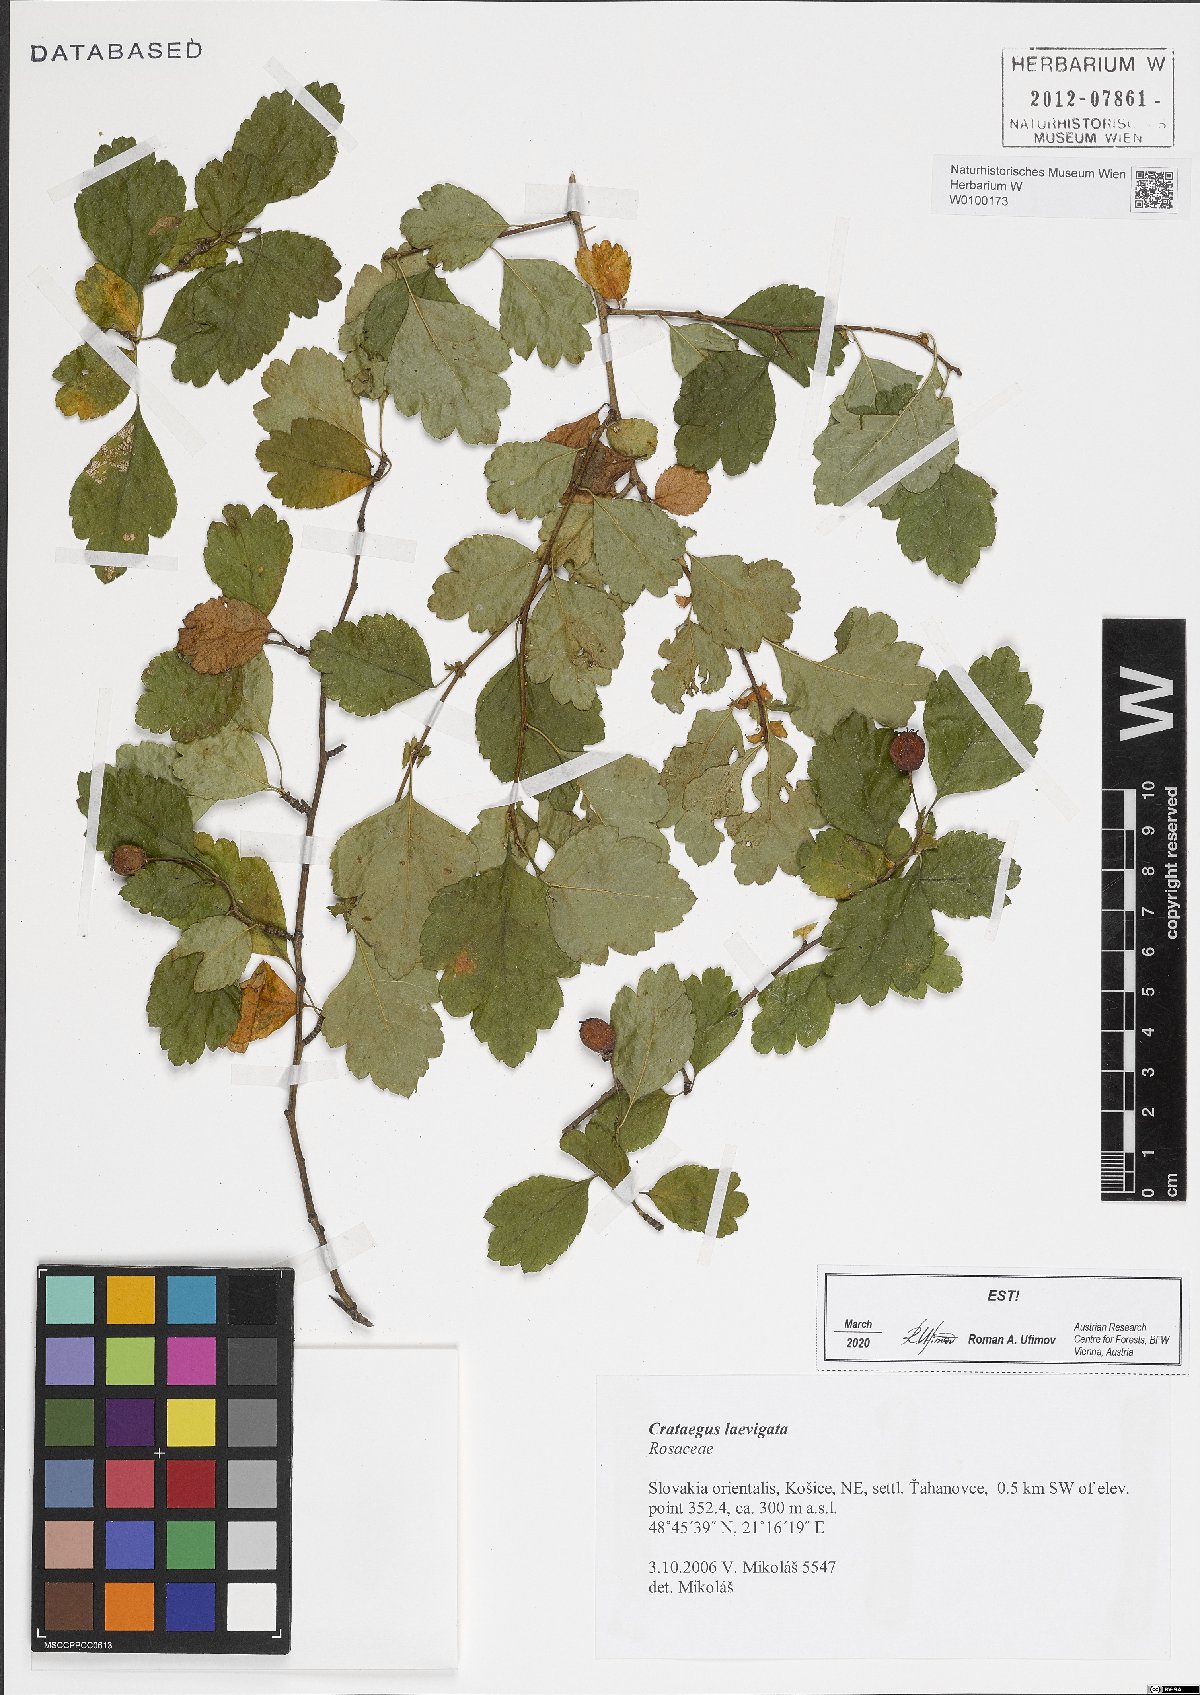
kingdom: Plantae
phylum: Tracheophyta
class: Magnoliopsida
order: Rosales
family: Rosaceae
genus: Crataegus
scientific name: Crataegus laevigata
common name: Midland hawthorn
